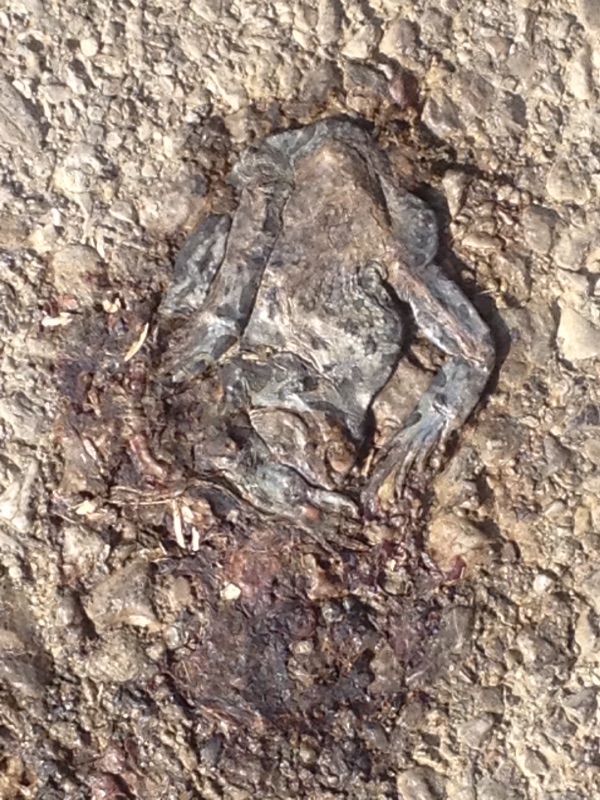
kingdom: Animalia
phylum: Chordata
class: Amphibia
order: Anura
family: Bufonidae
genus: Bufotes
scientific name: Bufotes viridis
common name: European green toad
